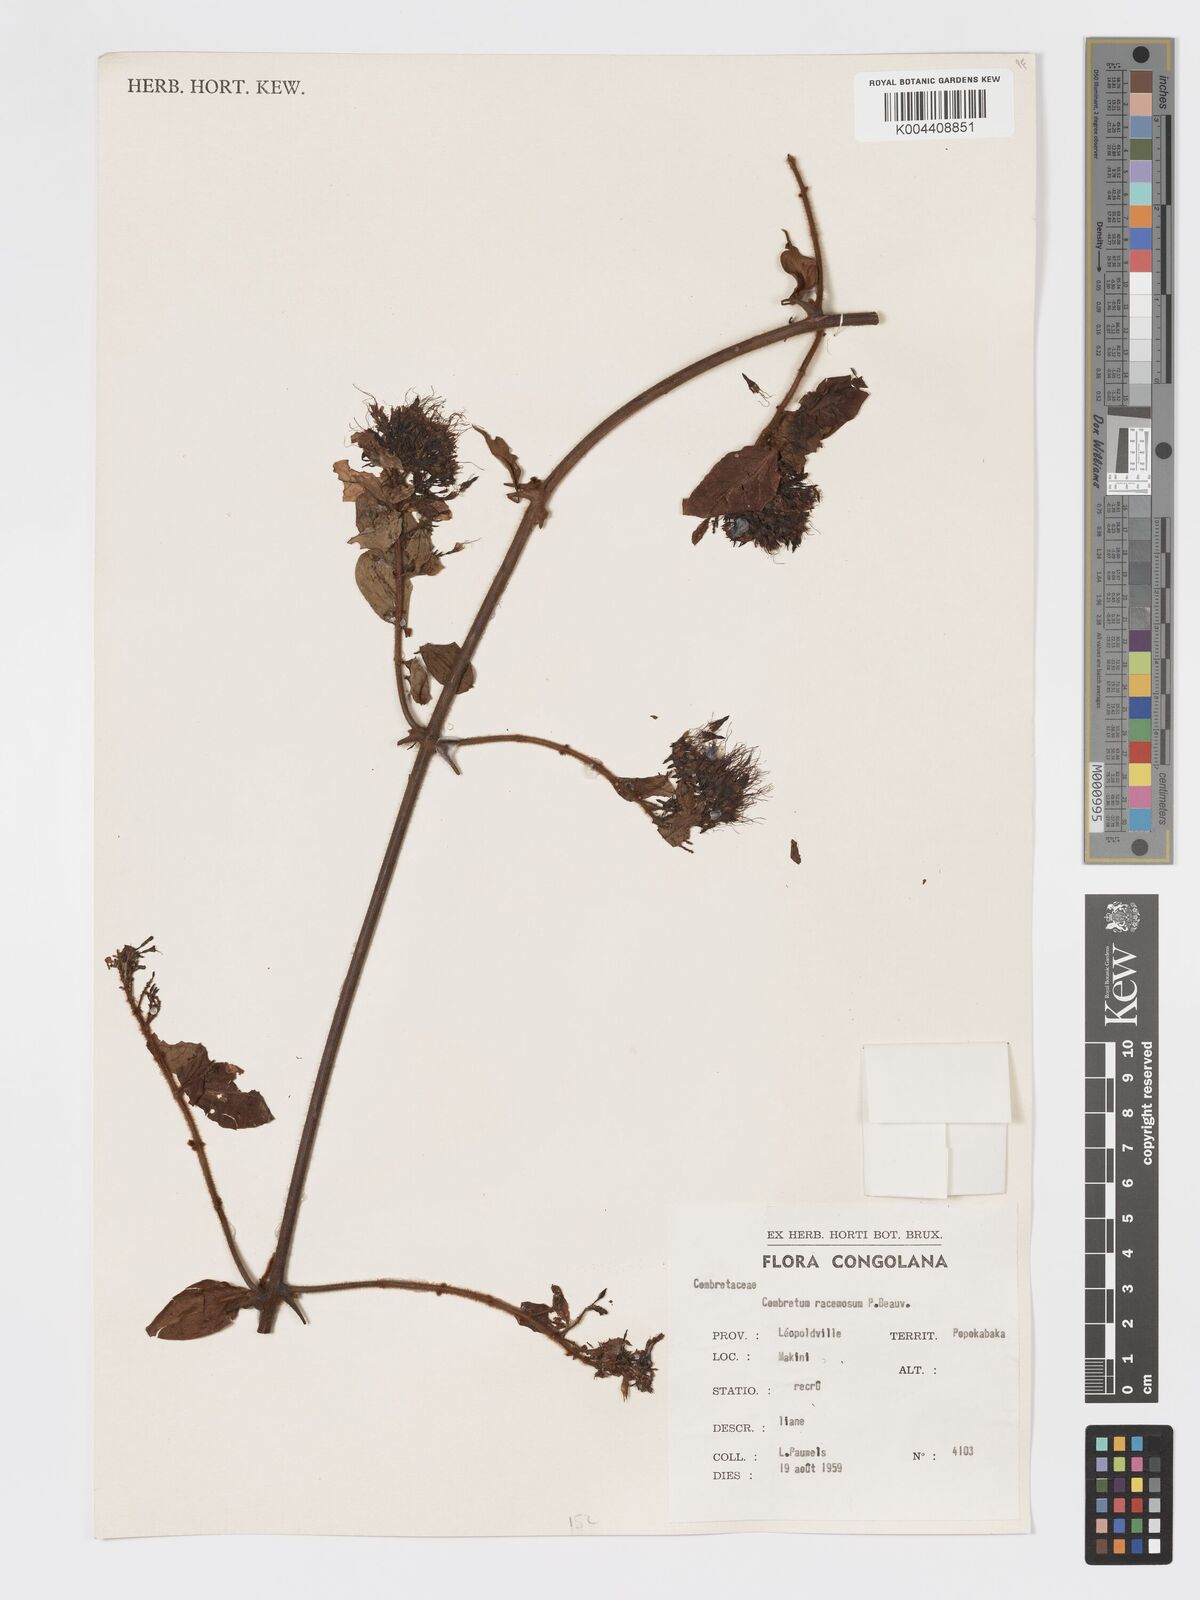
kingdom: Plantae
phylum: Tracheophyta
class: Magnoliopsida
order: Myrtales
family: Combretaceae
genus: Combretum
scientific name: Combretum racemosum
